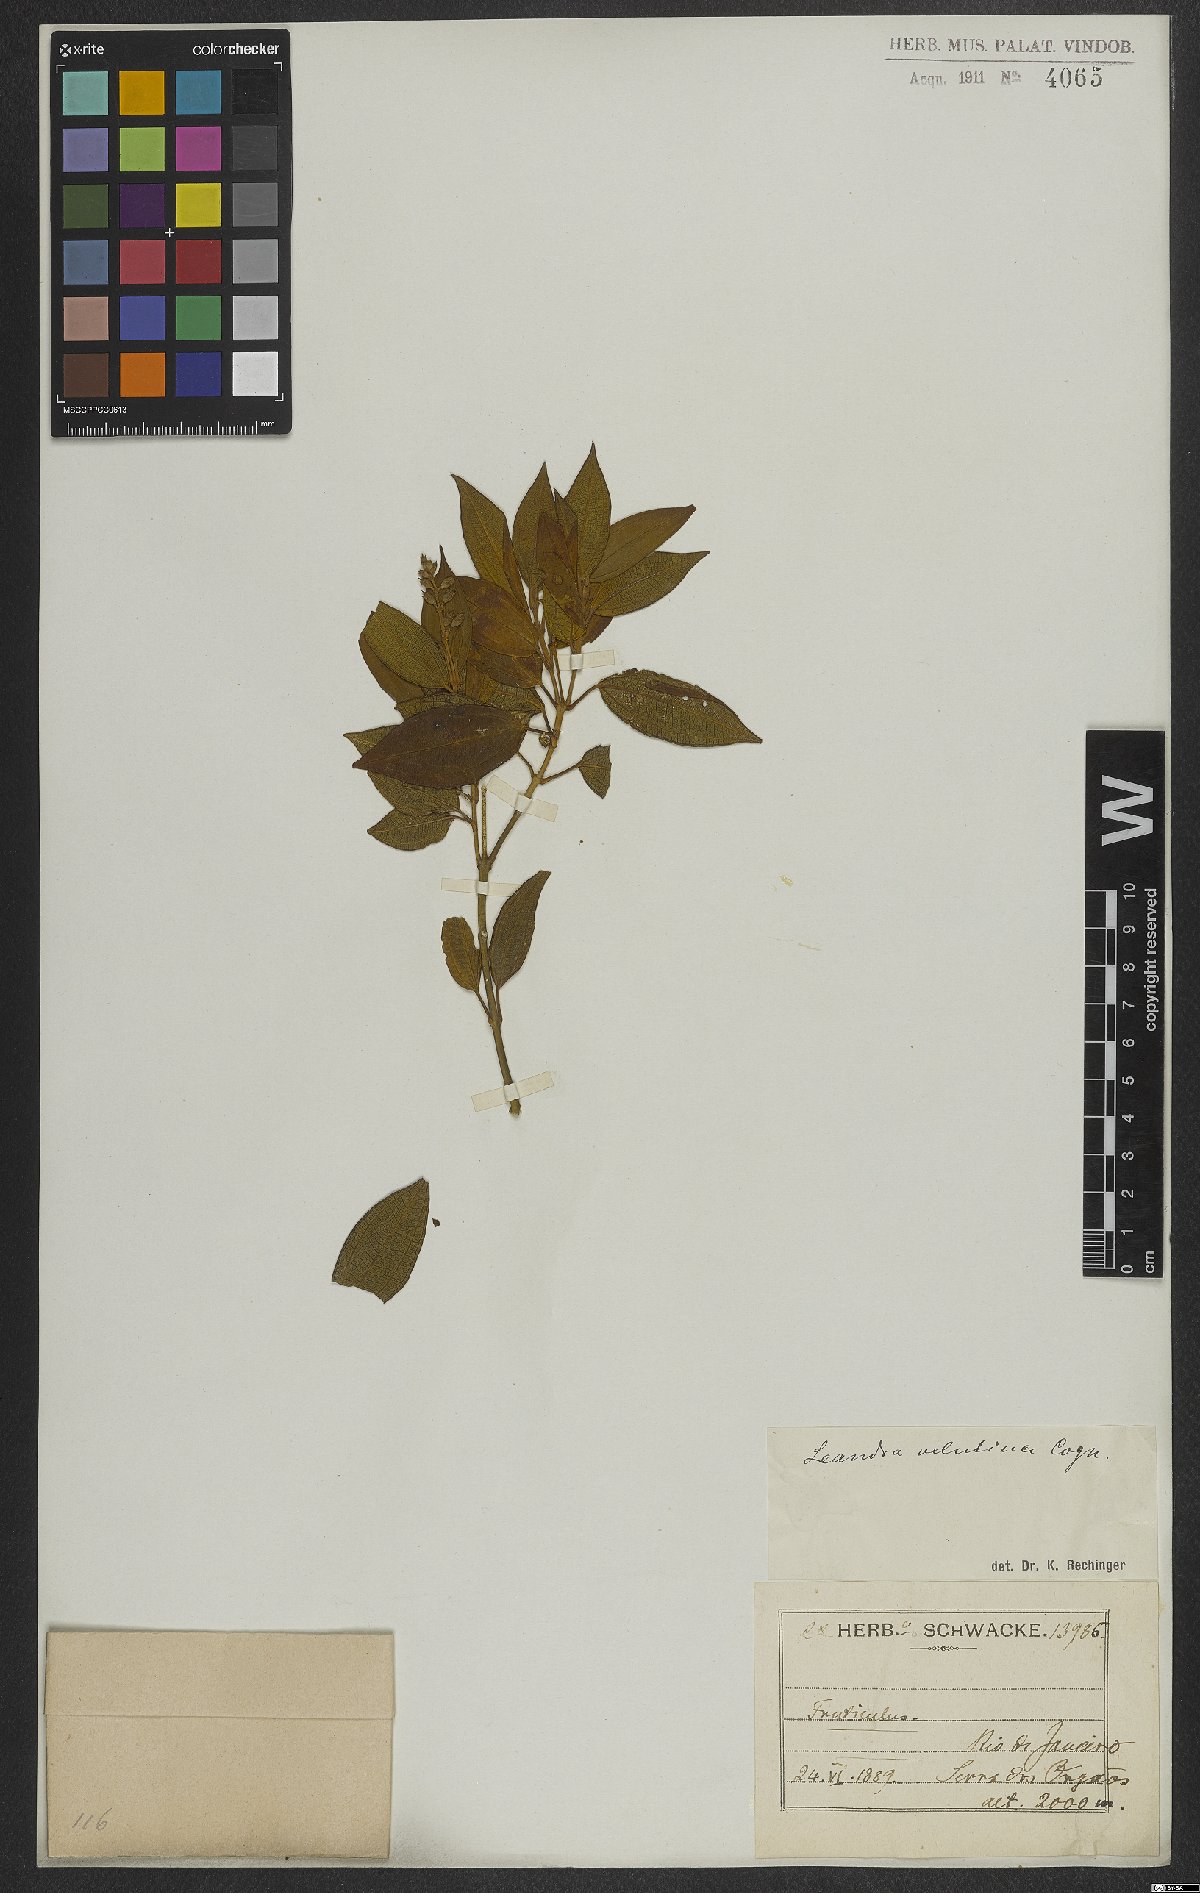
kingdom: Plantae
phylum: Tracheophyta
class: Magnoliopsida
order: Myrtales
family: Melastomataceae
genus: Miconia
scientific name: Miconia leavelutina
